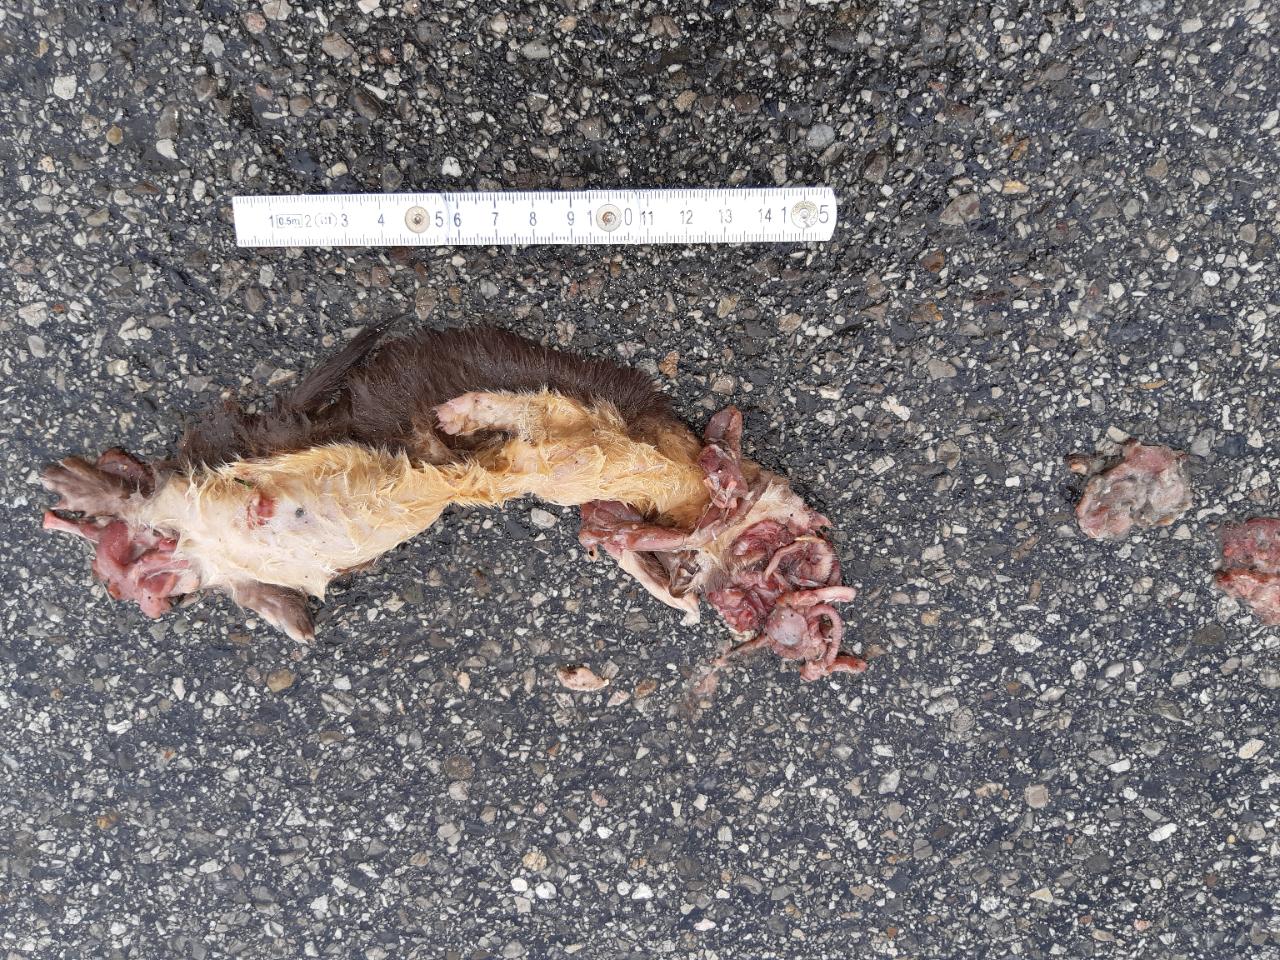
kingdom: Animalia
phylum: Chordata
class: Mammalia
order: Carnivora
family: Mustelidae
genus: Mustela
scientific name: Mustela nivalis
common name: Least weasel
